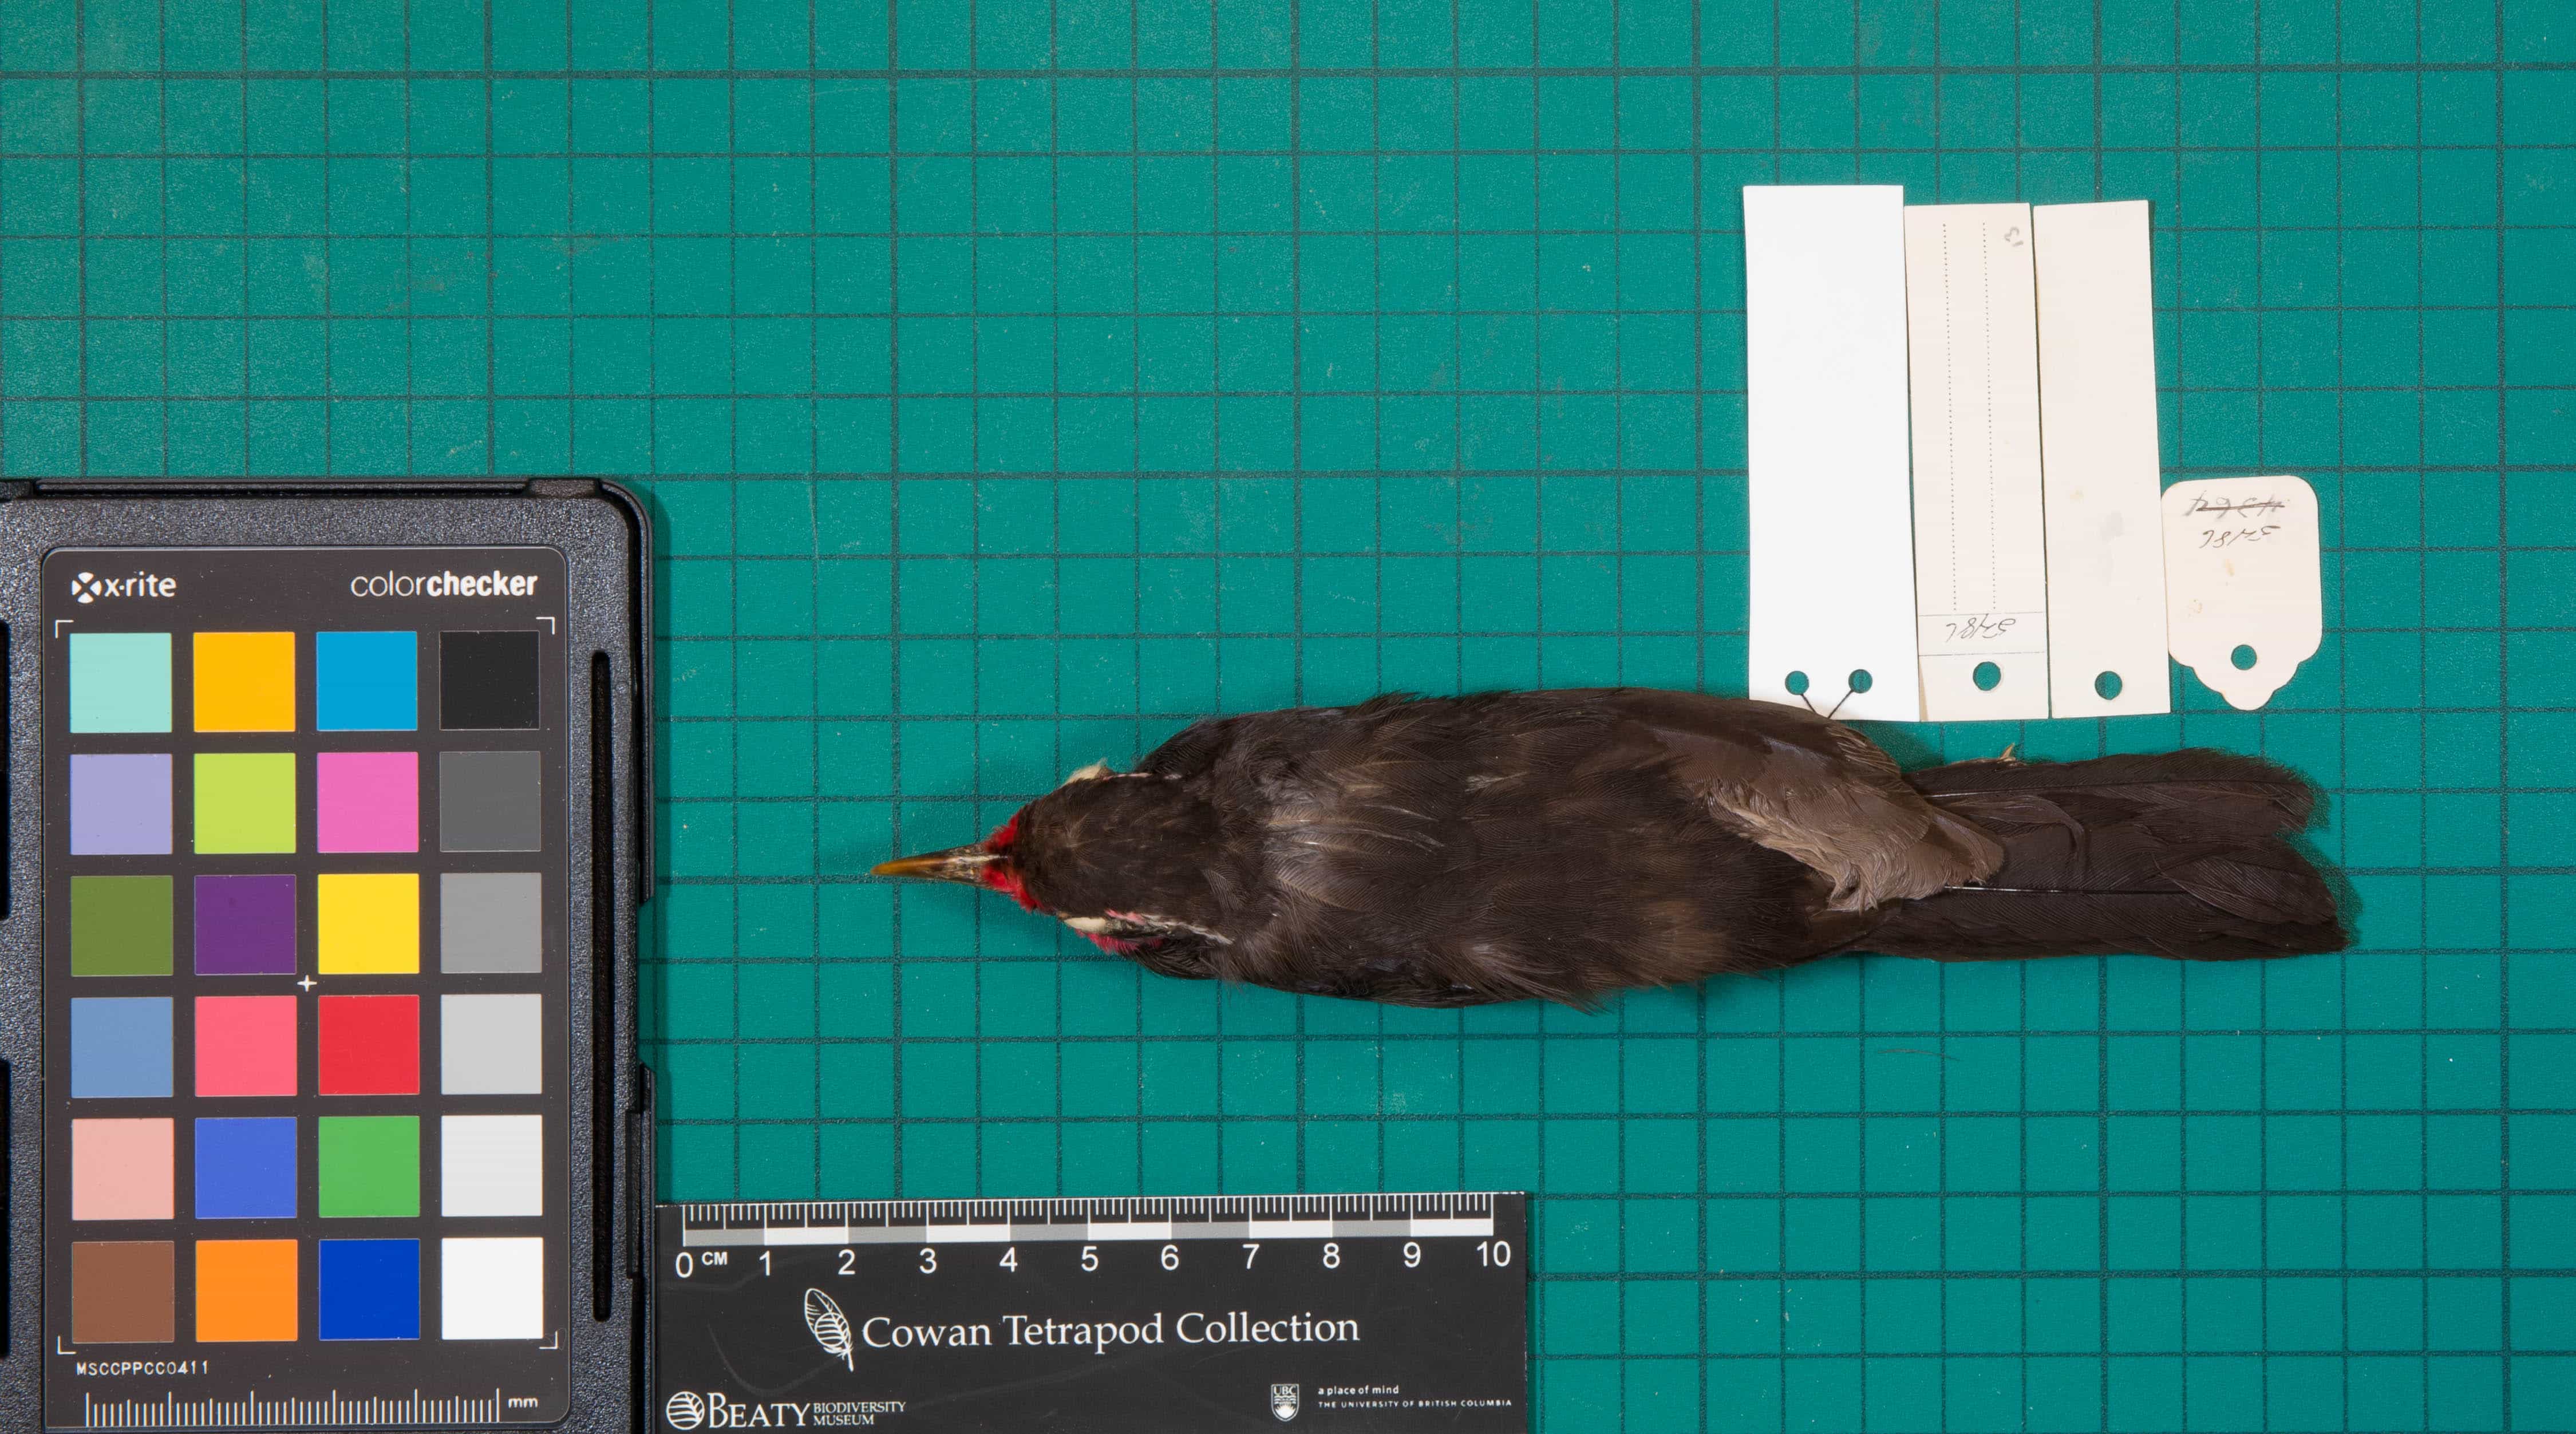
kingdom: Animalia
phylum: Chordata
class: Aves
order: Passeriformes
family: Rhodinocichlidae
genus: Rhodinocichla
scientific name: Rhodinocichla rosea
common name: Rosy Thrush-Tanager
